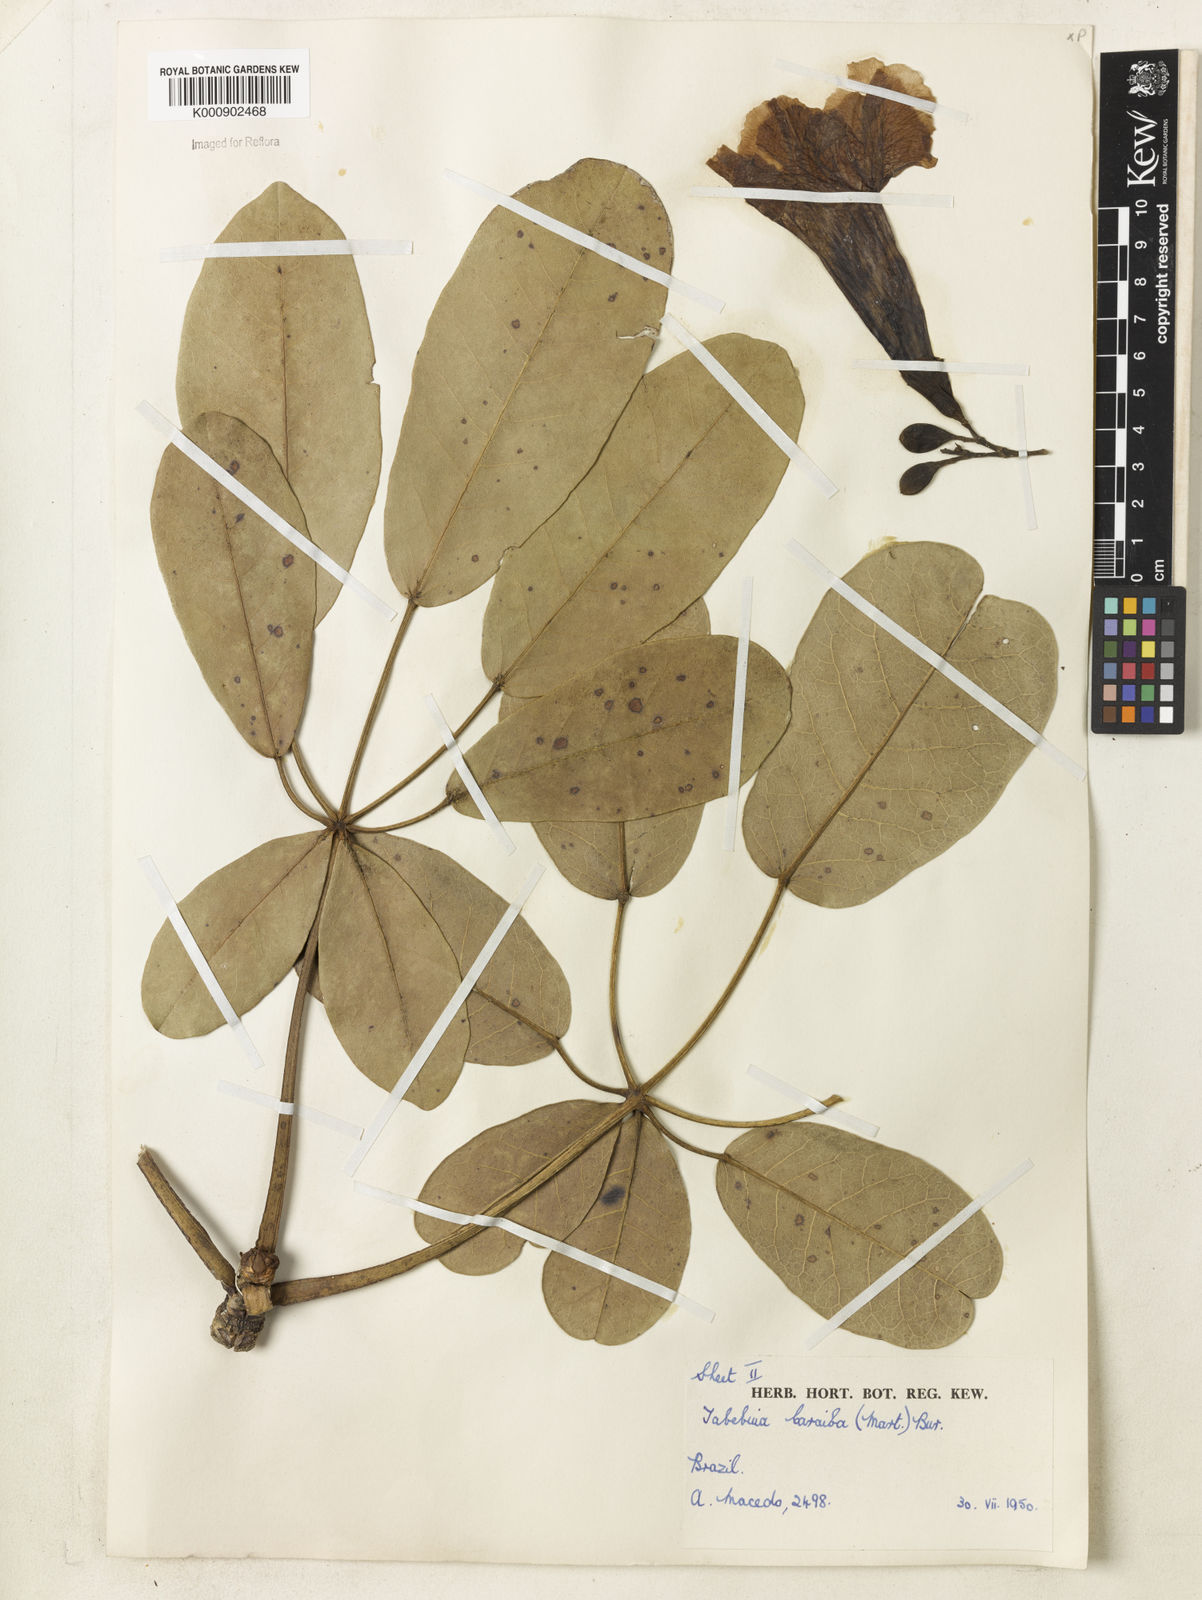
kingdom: Plantae
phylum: Tracheophyta
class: Magnoliopsida
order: Lamiales
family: Bignoniaceae
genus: Tabebuia
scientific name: Tabebuia aurea
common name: Caribbean trumpet-tree
